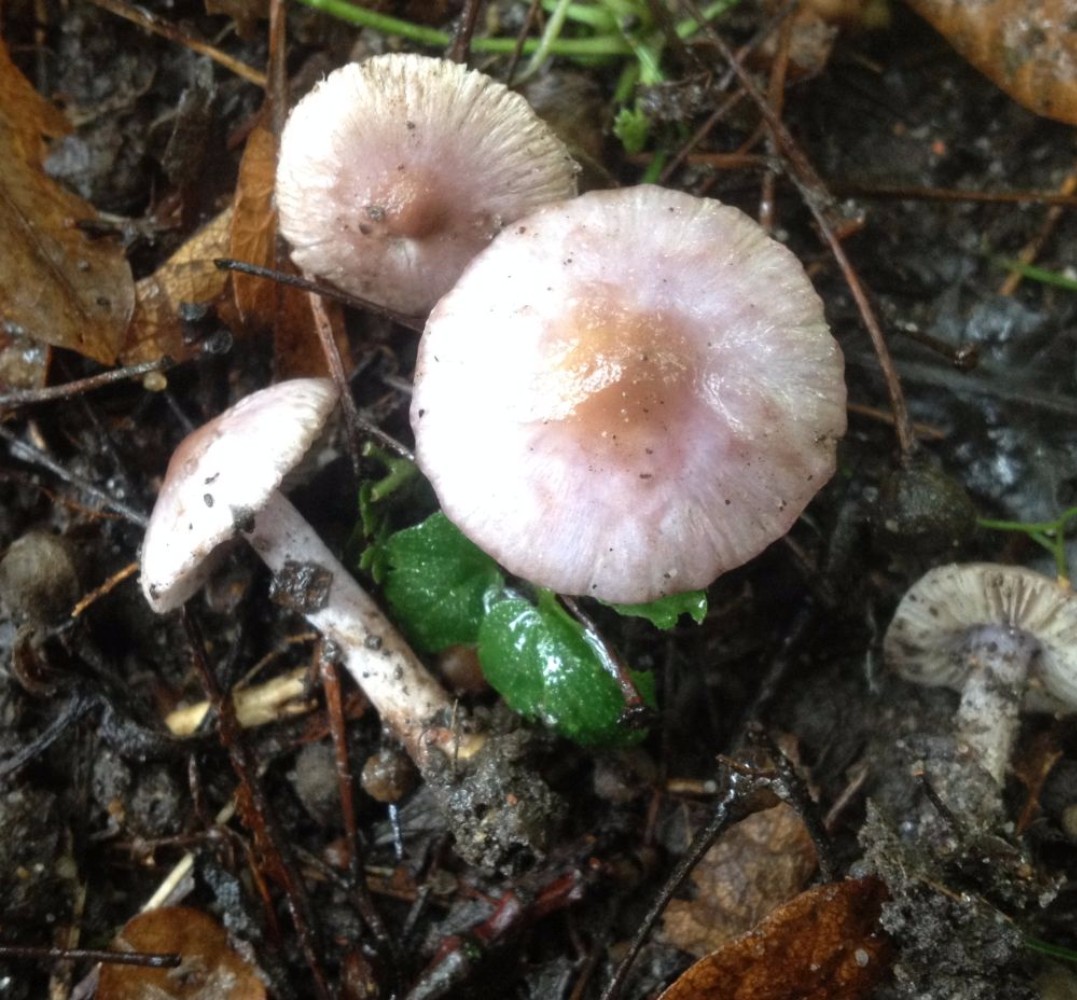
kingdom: Fungi
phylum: Basidiomycota
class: Agaricomycetes
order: Agaricales
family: Inocybaceae
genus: Inocybe
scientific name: Inocybe geophylla
